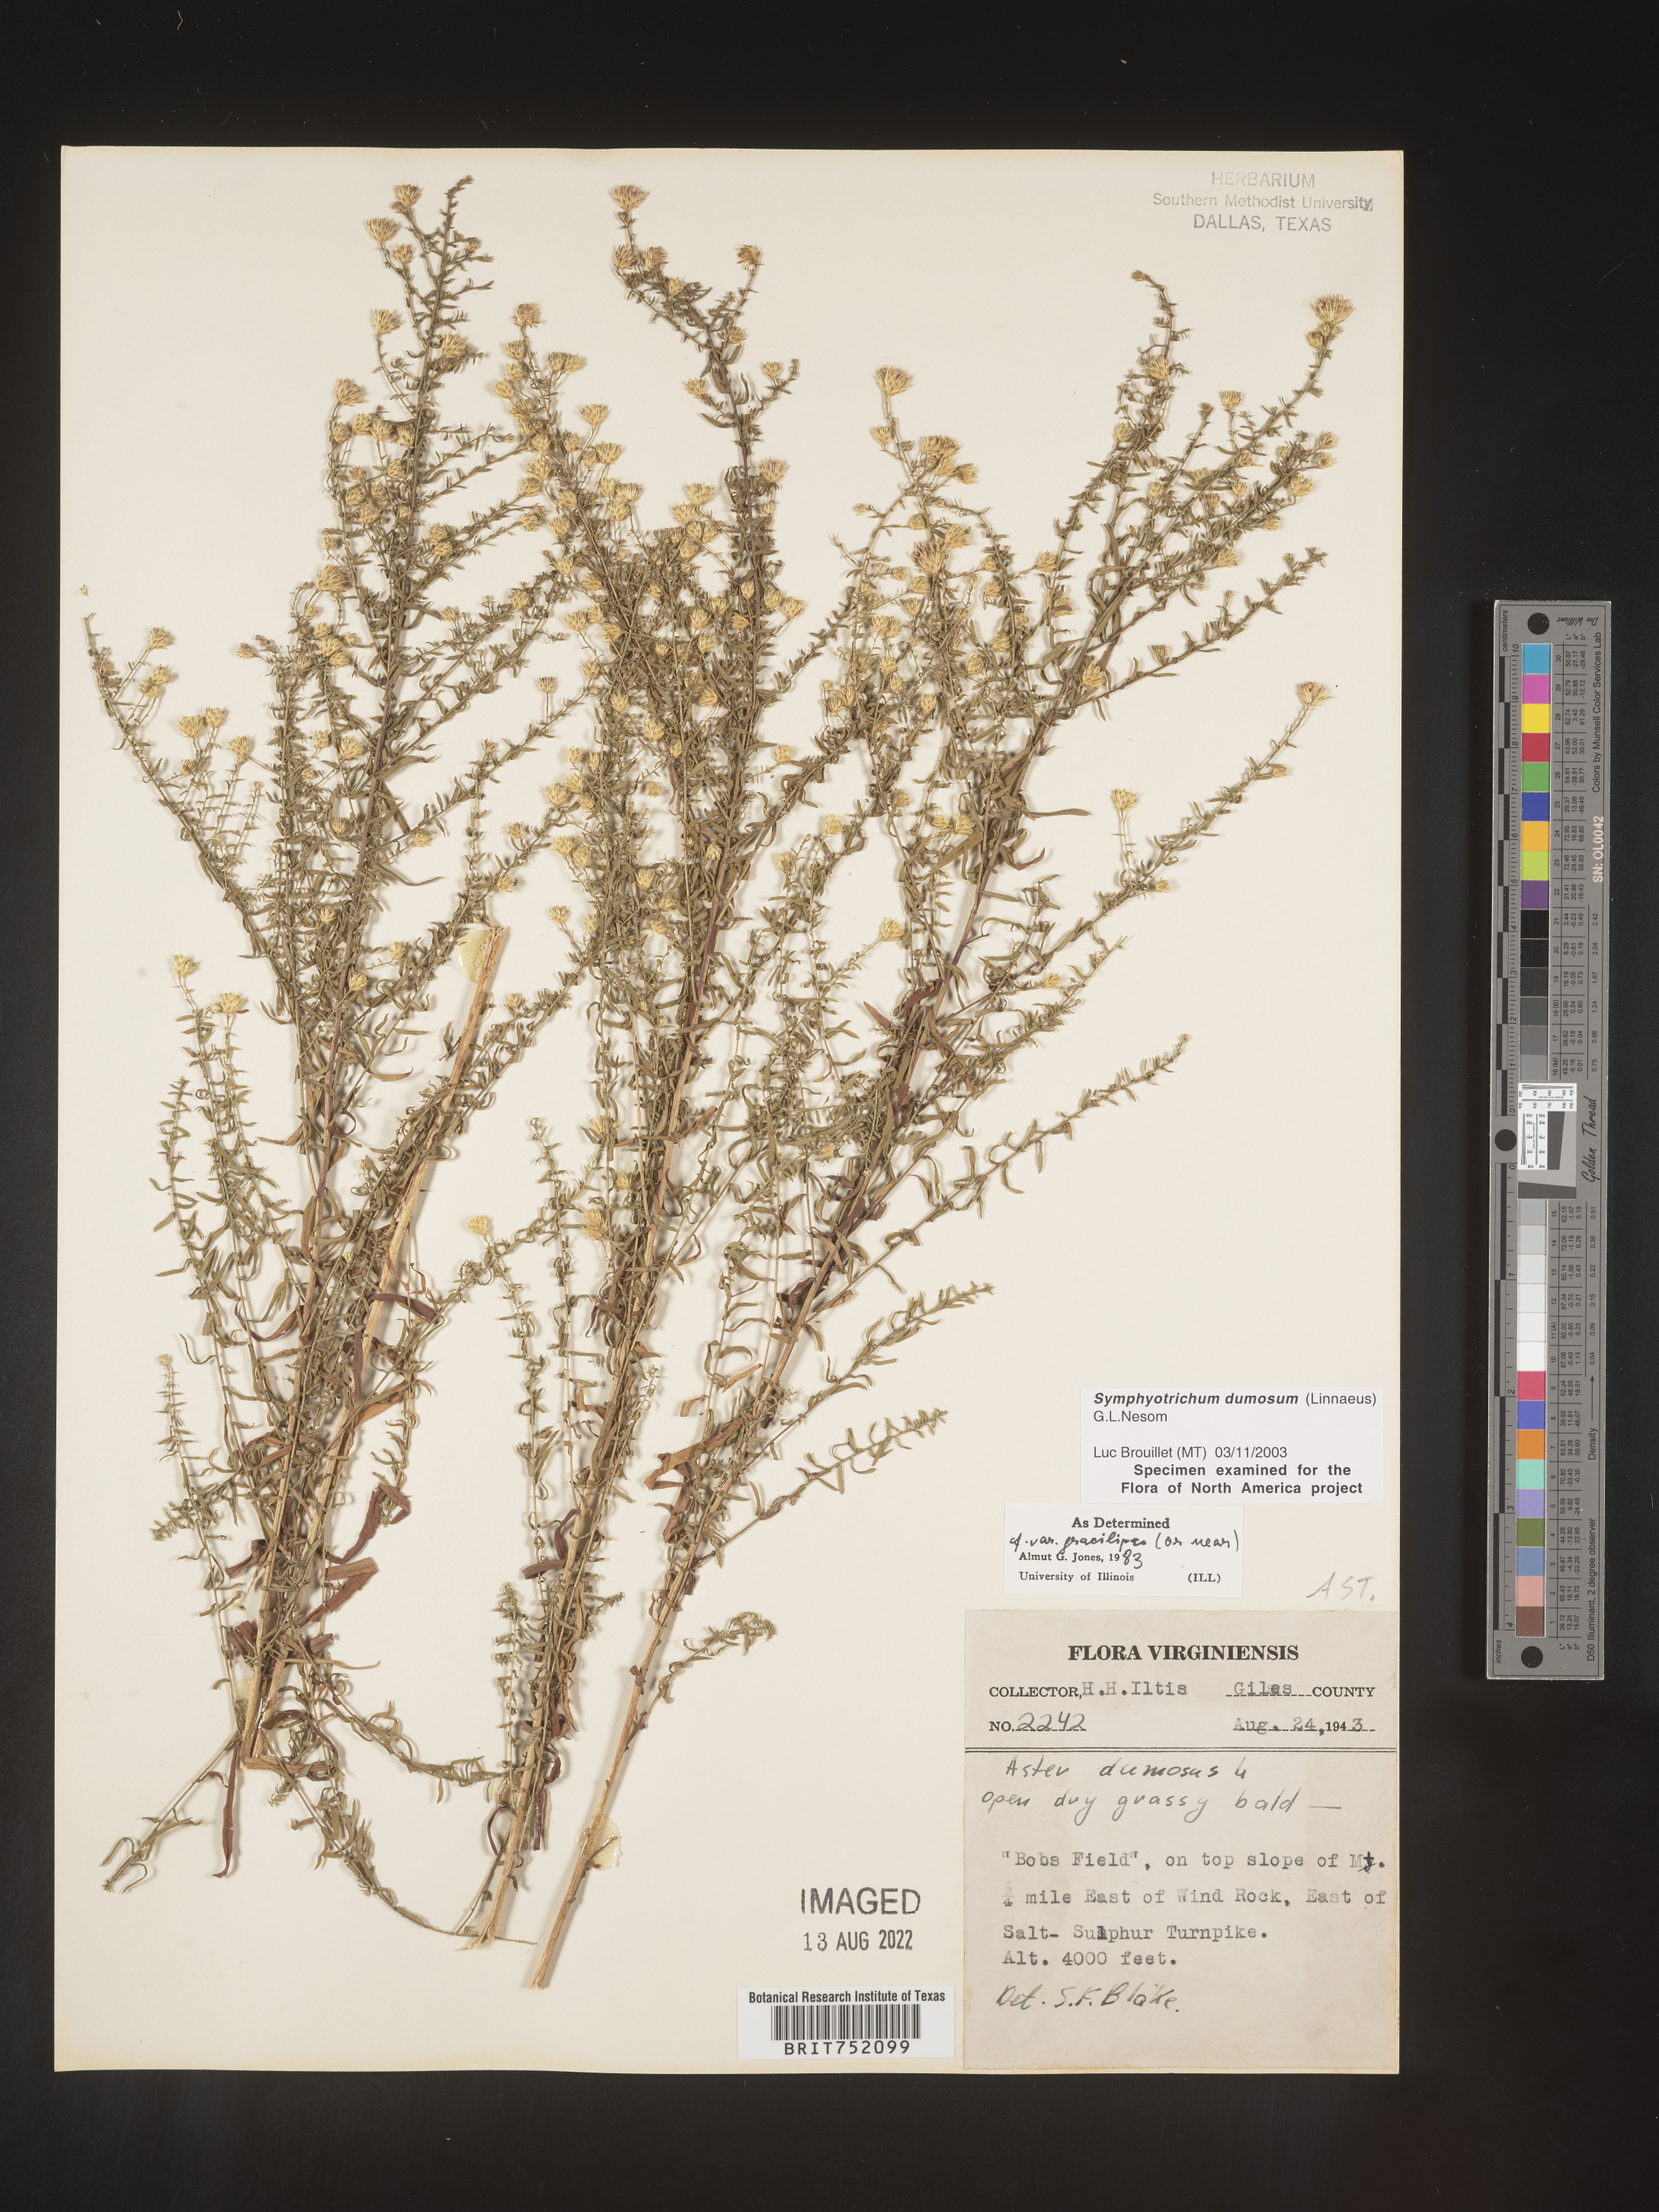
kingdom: Plantae
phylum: Tracheophyta
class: Magnoliopsida
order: Asterales
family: Asteraceae
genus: Symphyotrichum
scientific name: Symphyotrichum dumosum
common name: Bushy aster
